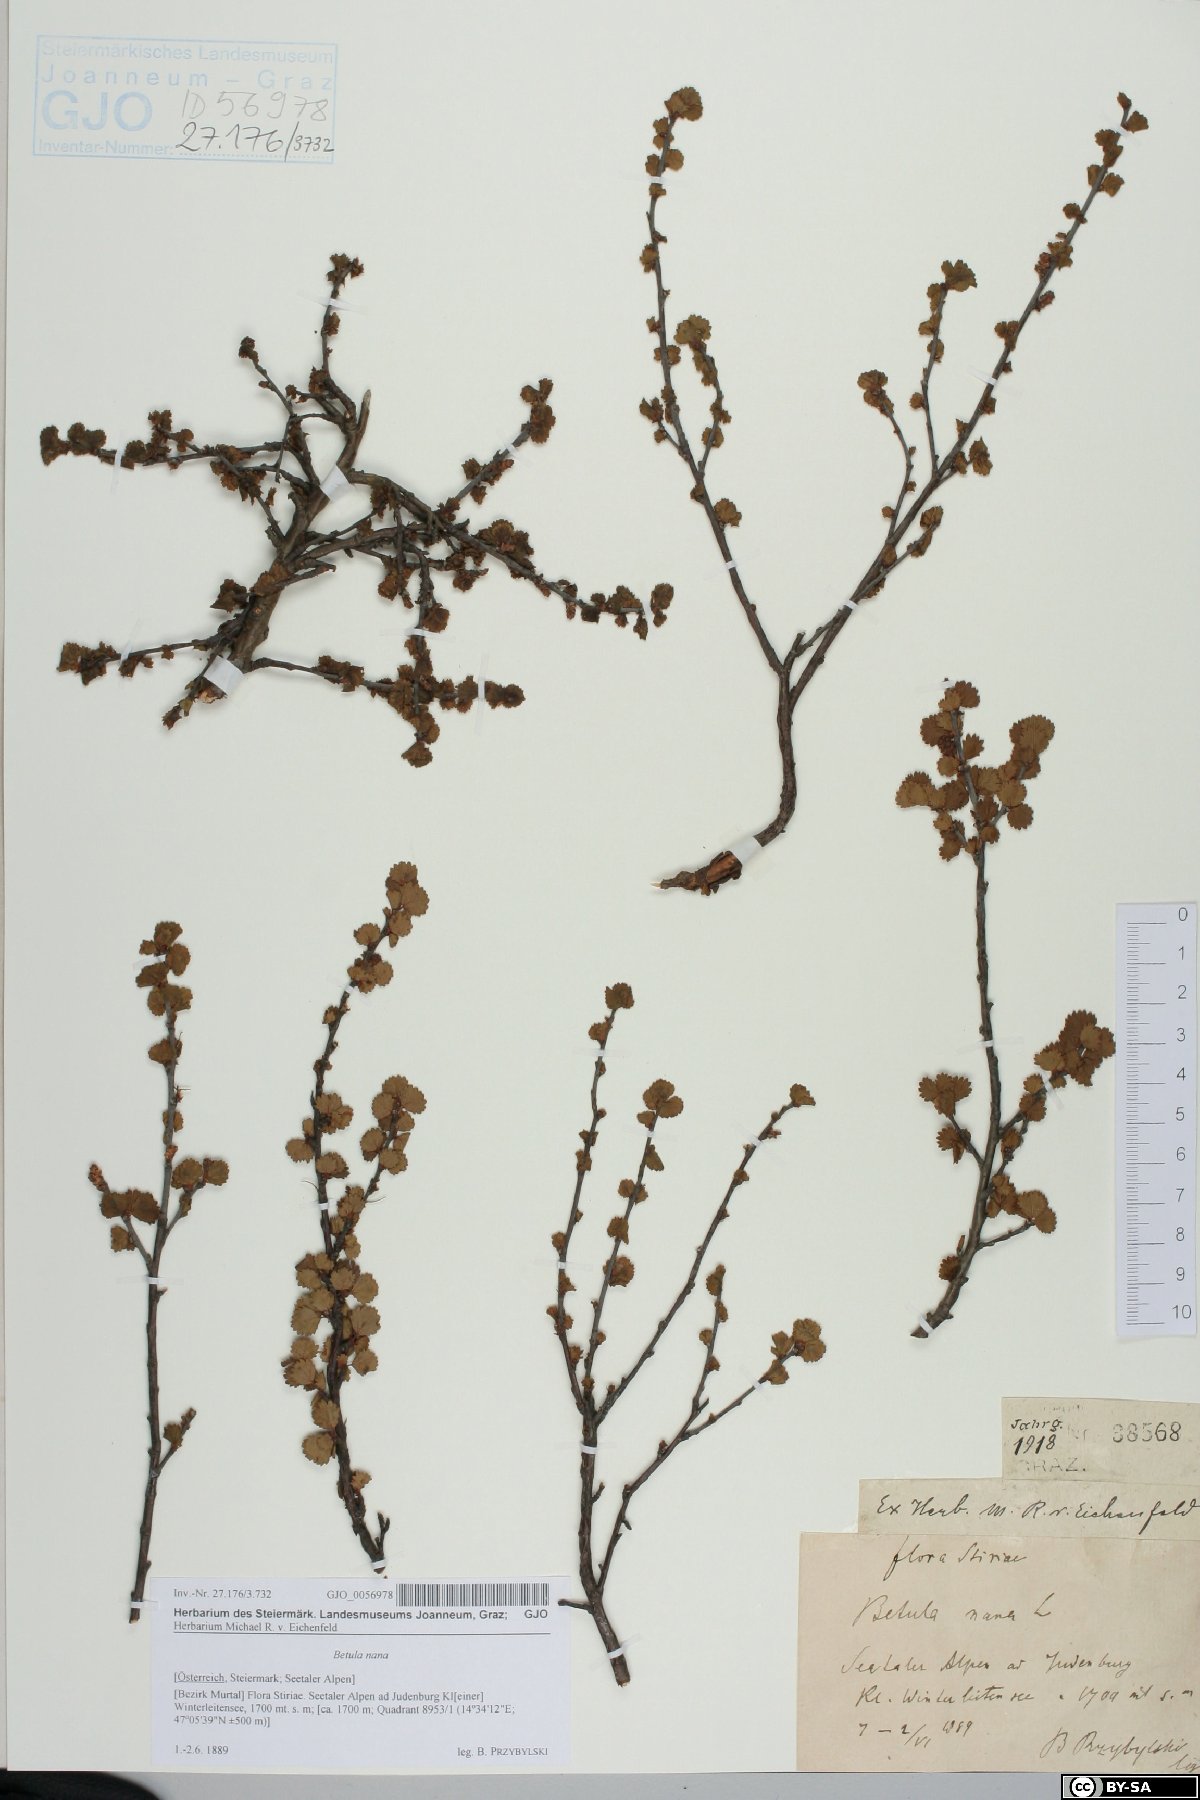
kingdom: Plantae
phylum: Tracheophyta
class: Magnoliopsida
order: Fagales
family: Betulaceae
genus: Betula
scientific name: Betula nana
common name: Arctic dwarf birch
